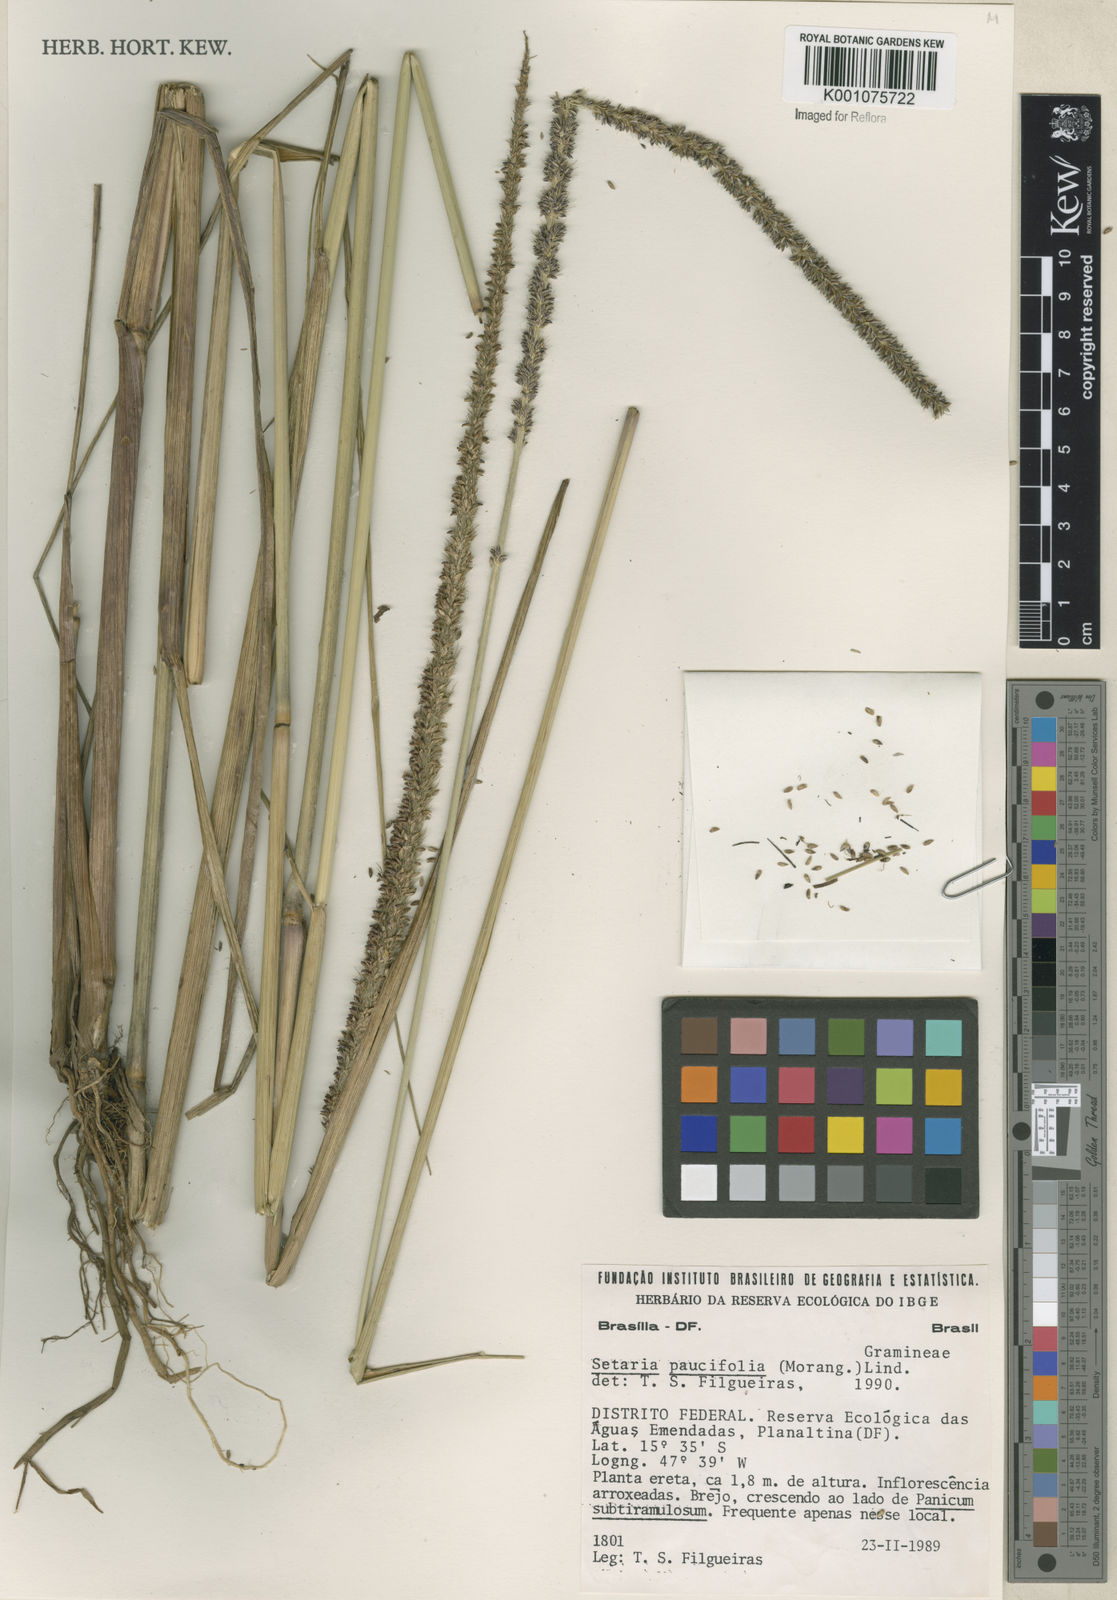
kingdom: Plantae
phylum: Tracheophyta
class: Liliopsida
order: Poales
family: Poaceae
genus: Setaria
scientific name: Setaria
